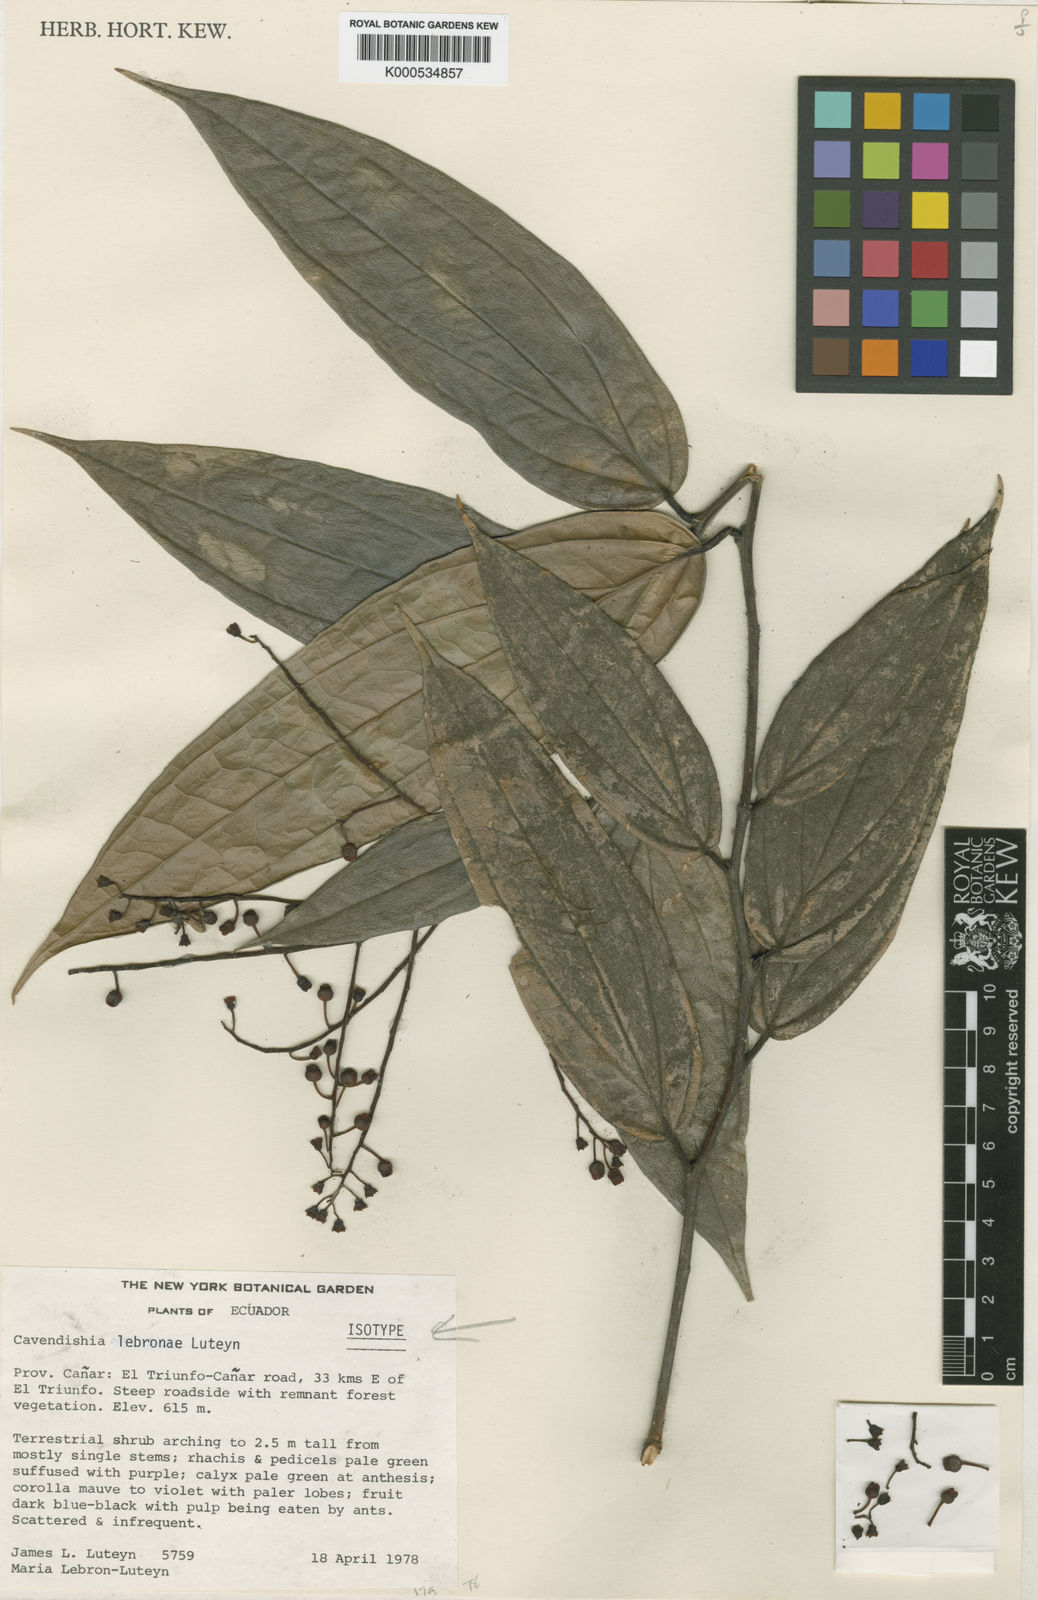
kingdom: Plantae
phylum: Tracheophyta
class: Magnoliopsida
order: Ericales
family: Ericaceae
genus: Cavendishia
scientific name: Cavendishia lebroniae
